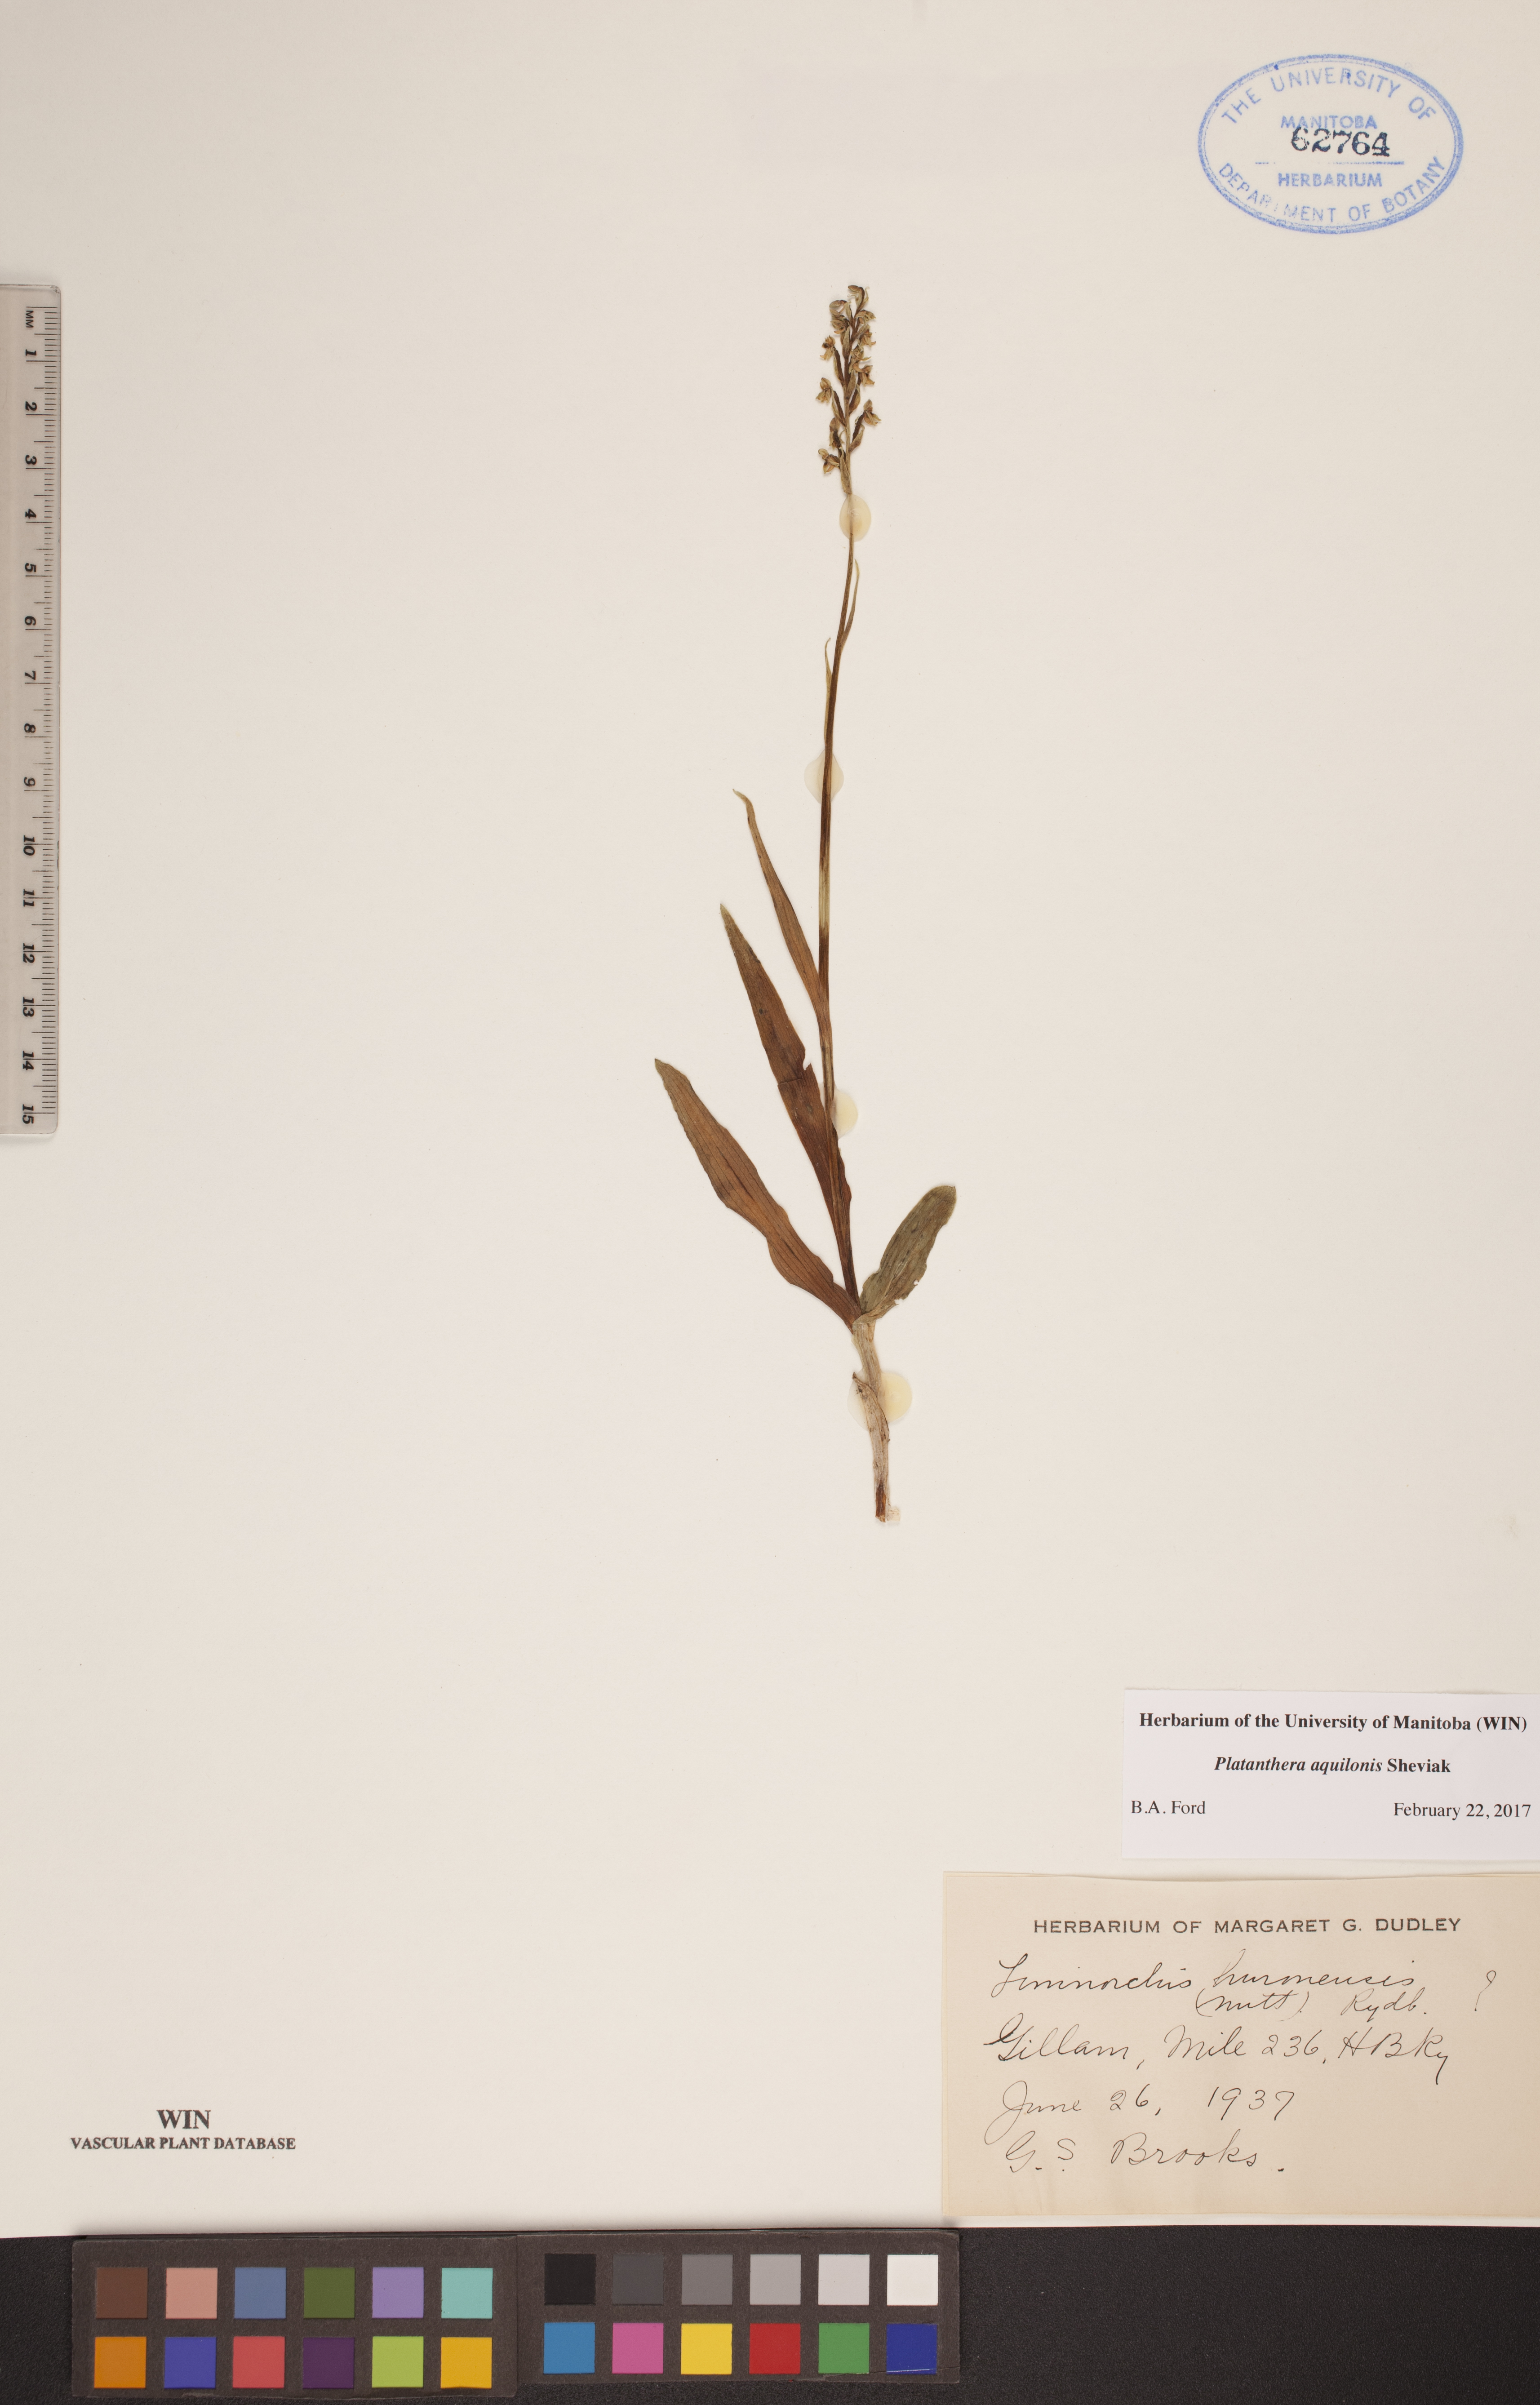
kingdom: Plantae
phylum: Tracheophyta
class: Liliopsida
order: Asparagales
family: Orchidaceae
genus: Platanthera
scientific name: Platanthera aquilonis
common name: Northern green orchid
